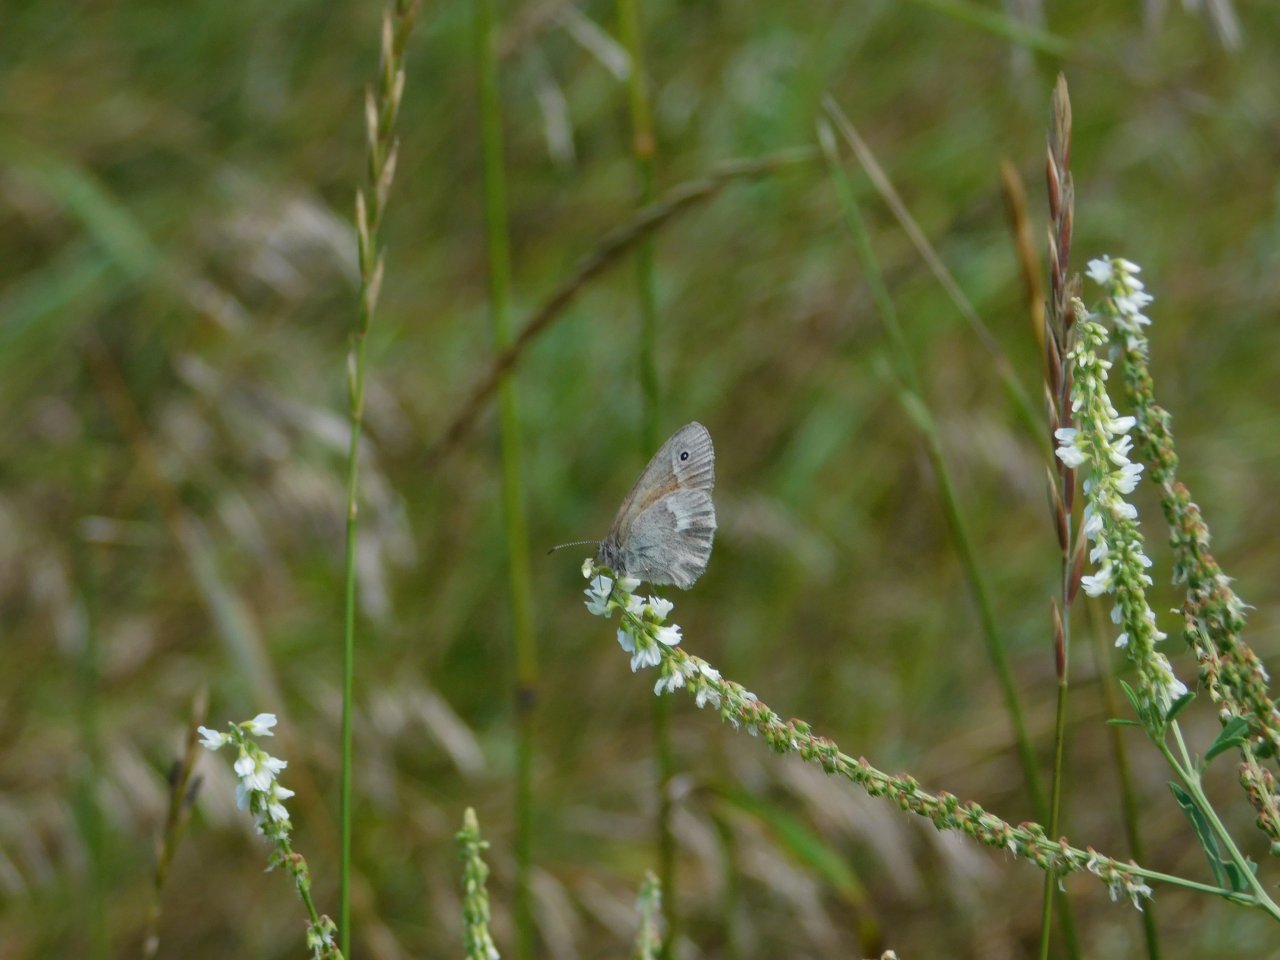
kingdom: Animalia
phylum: Arthropoda
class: Insecta
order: Lepidoptera
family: Nymphalidae
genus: Coenonympha
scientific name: Coenonympha tullia
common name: Large Heath
